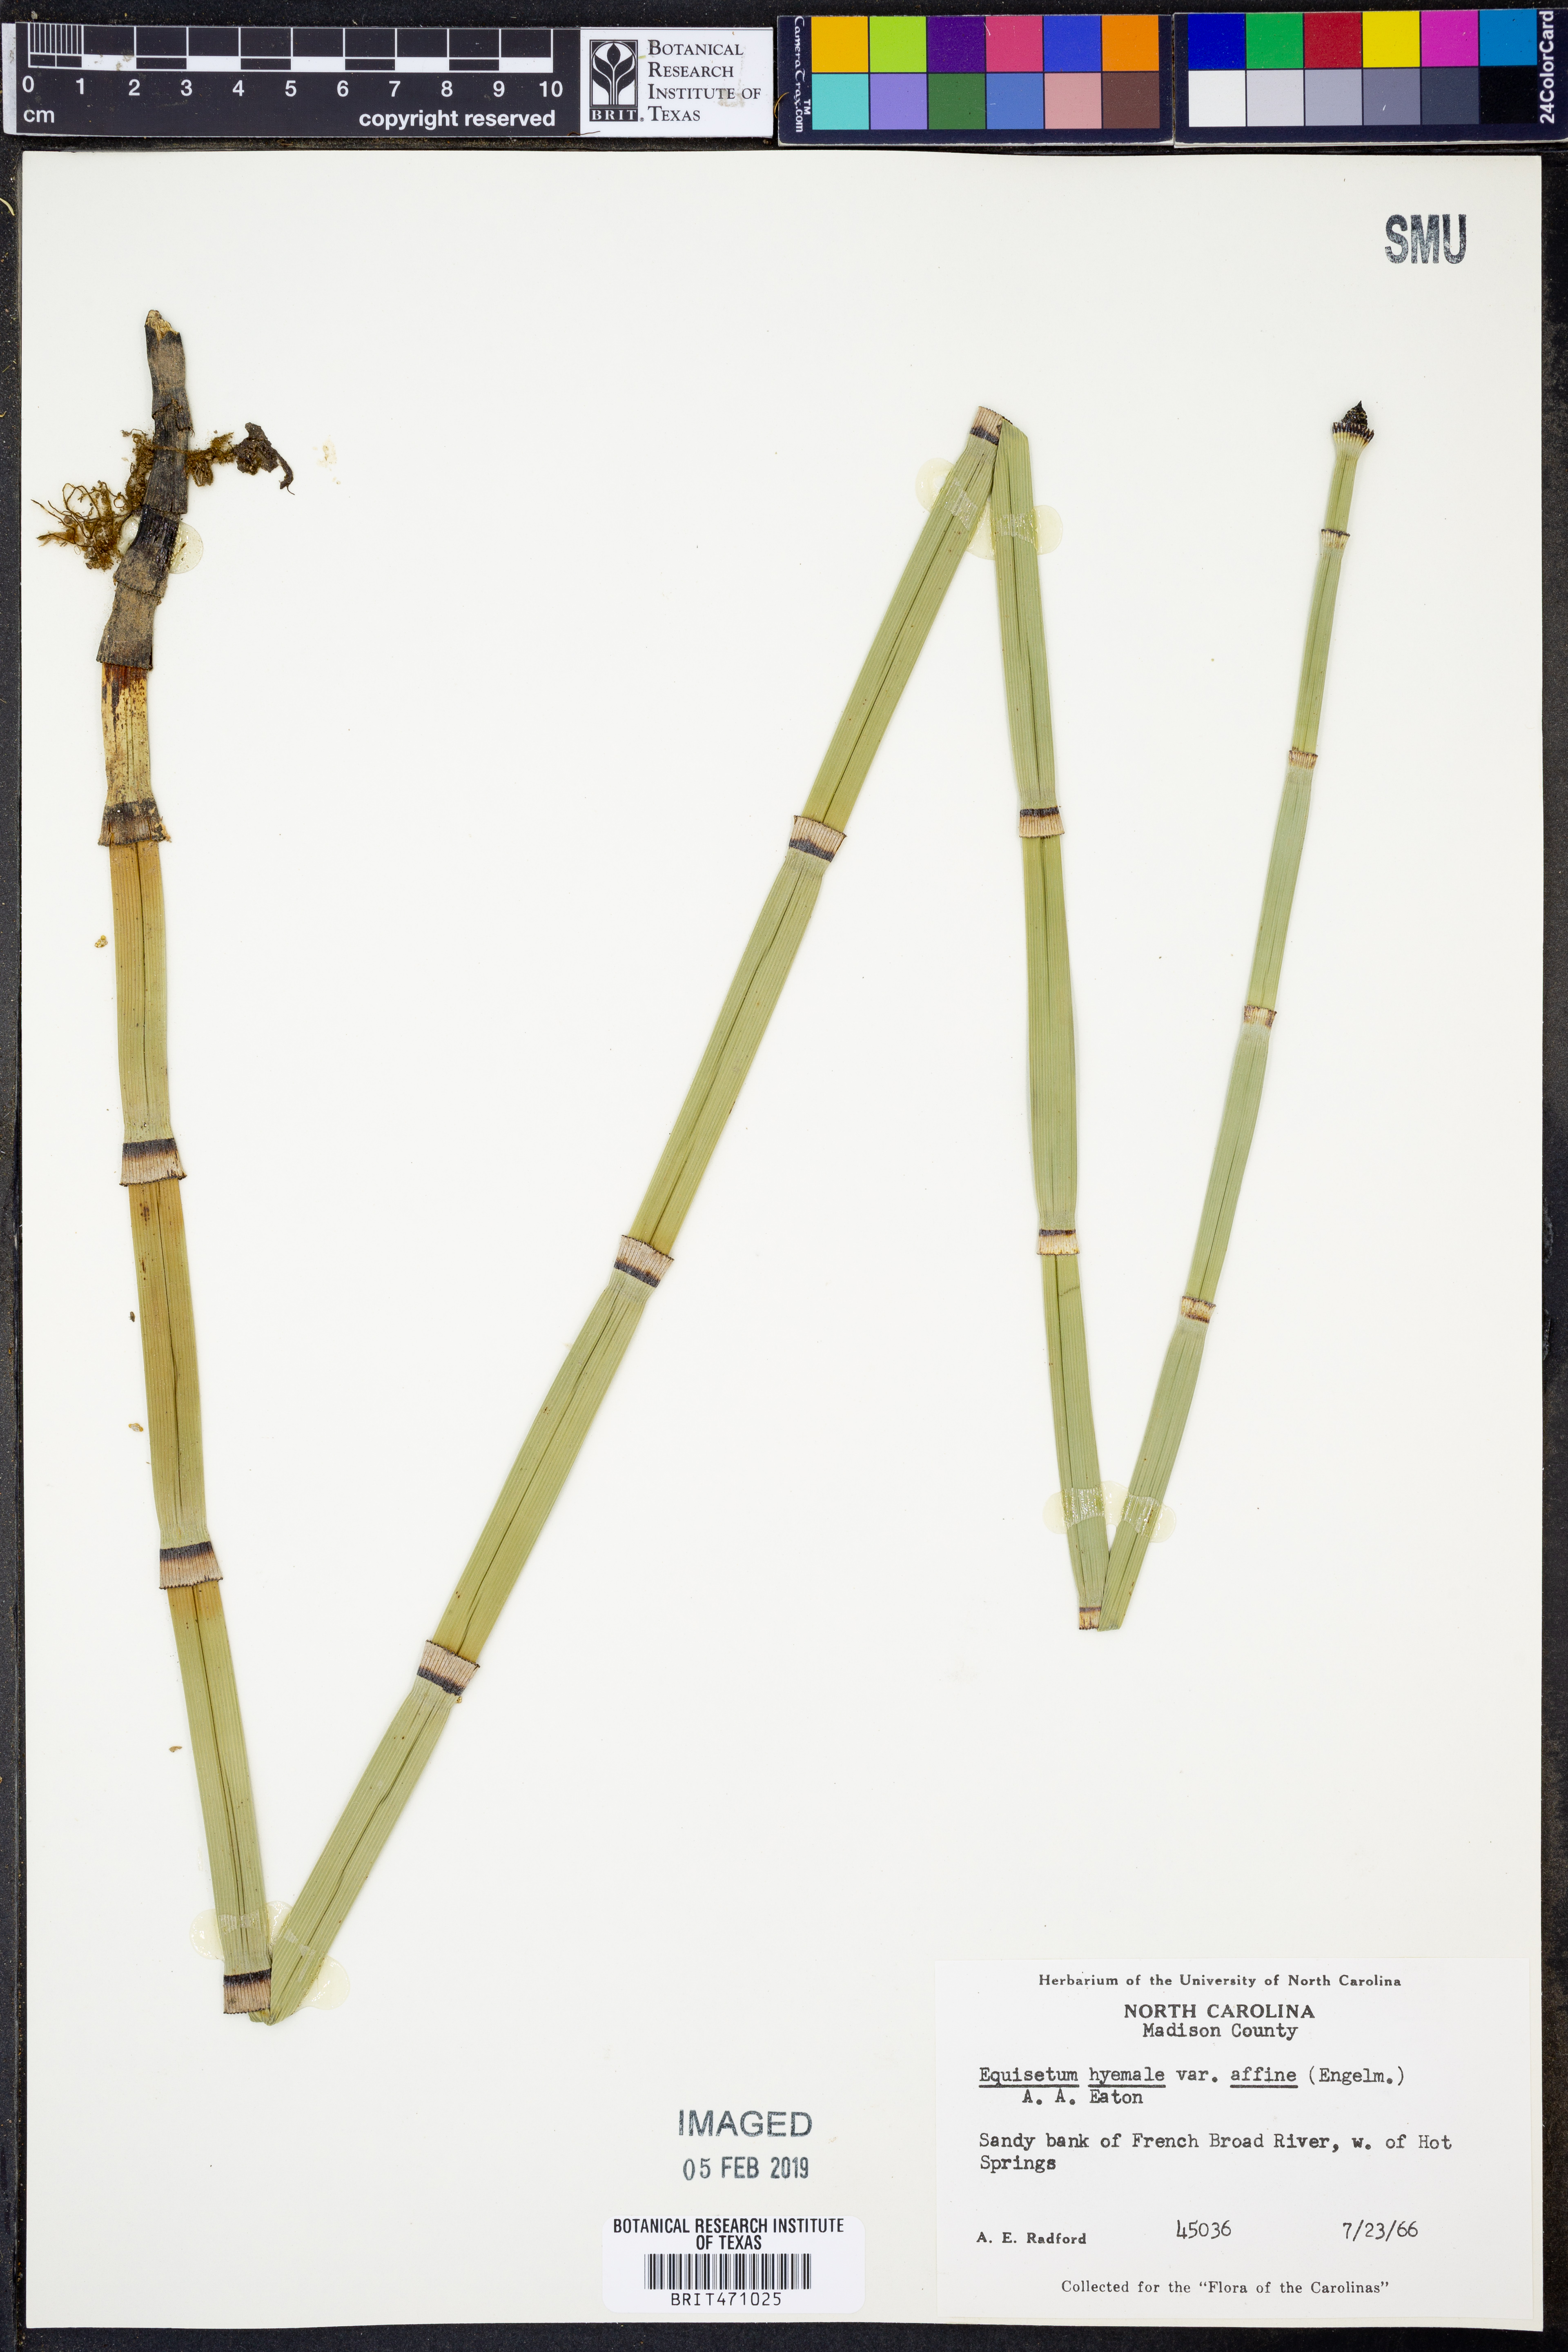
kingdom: Plantae
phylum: Tracheophyta
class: Polypodiopsida
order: Equisetales
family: Equisetaceae
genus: Equisetum
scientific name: Equisetum praealtum
